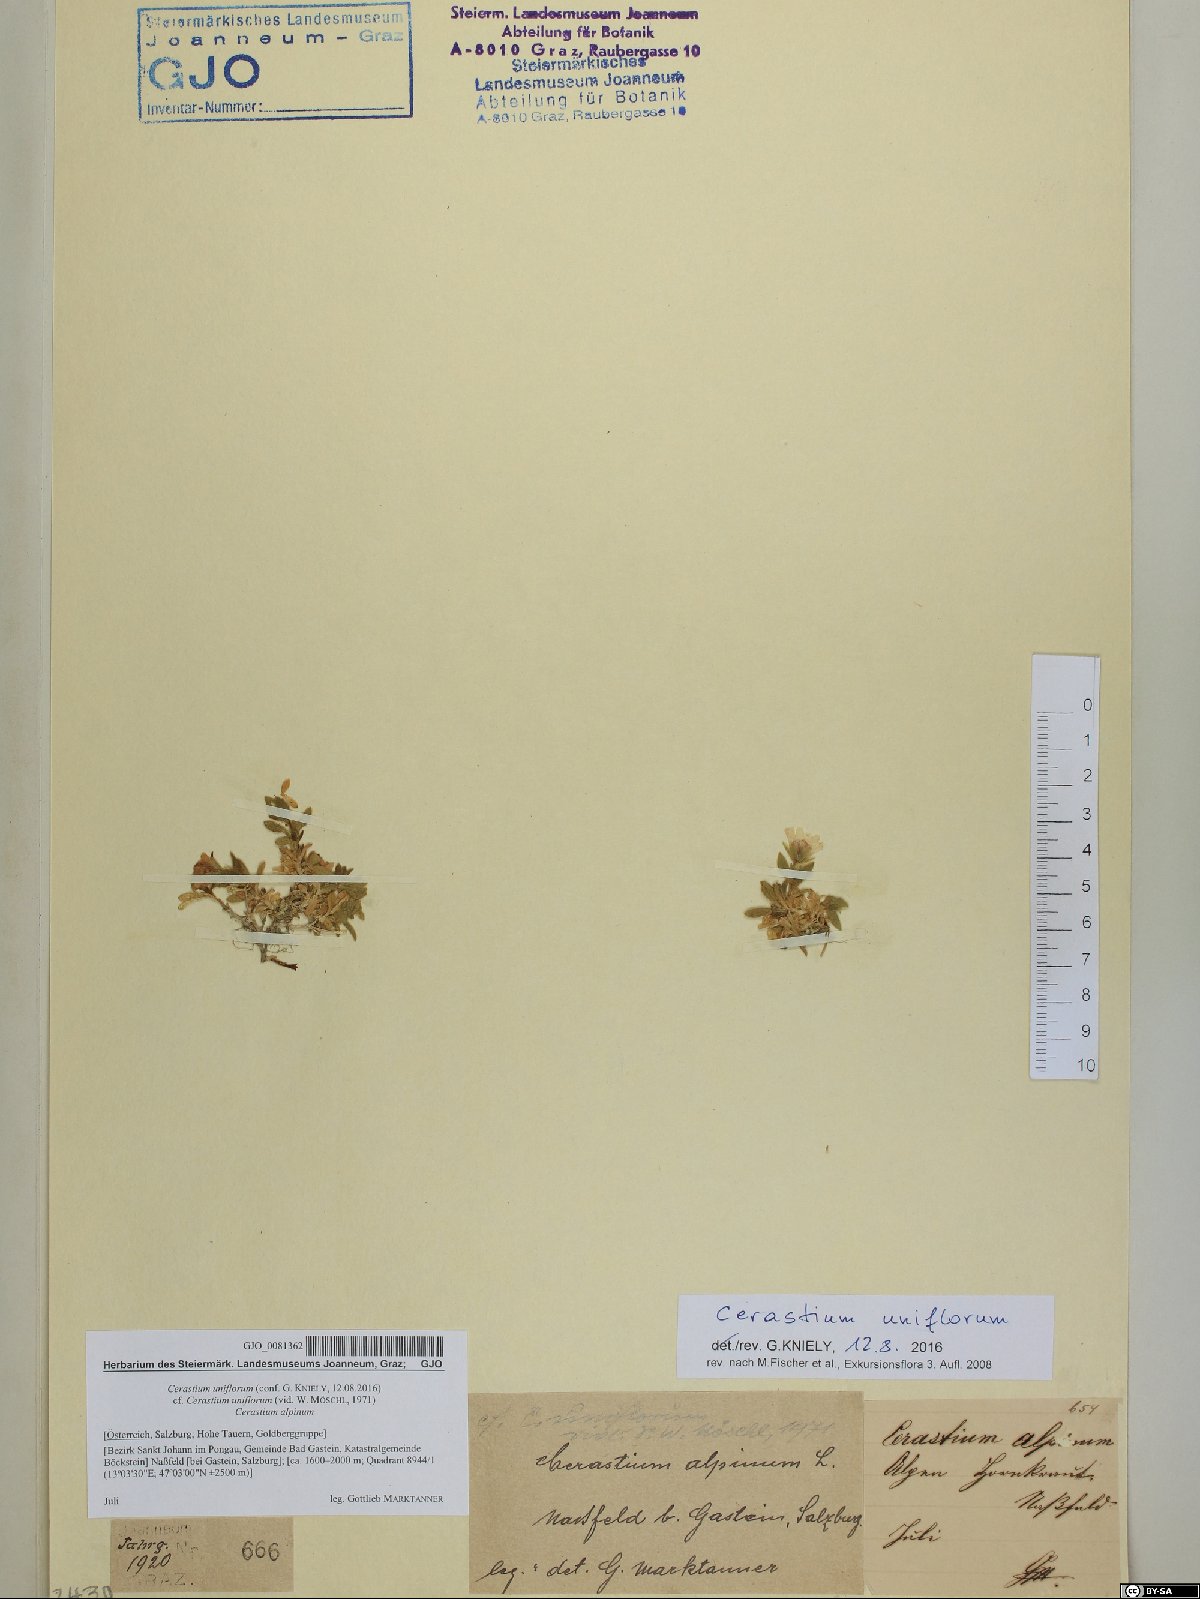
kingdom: Plantae
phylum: Tracheophyta
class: Magnoliopsida
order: Caryophyllales
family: Caryophyllaceae
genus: Cerastium
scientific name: Cerastium uniflorum
